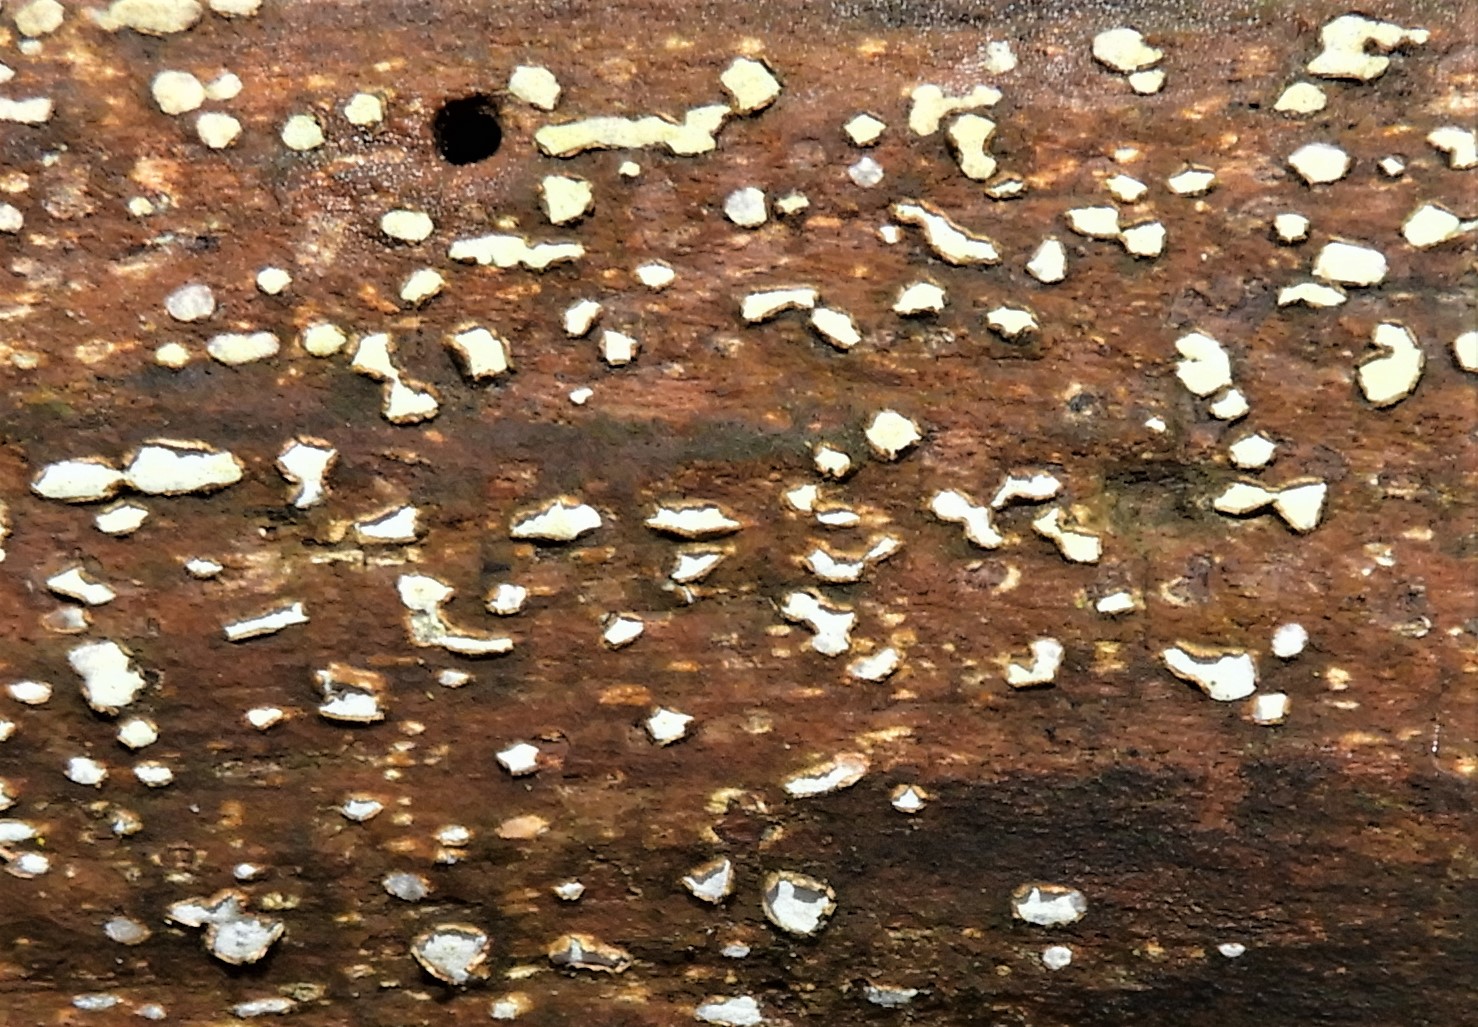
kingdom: Fungi
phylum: Ascomycota
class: Leotiomycetes
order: Chaetomellales
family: Marthamycetaceae
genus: Propolis
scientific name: Propolis farinosa
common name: almindelig vedsprængerskive
